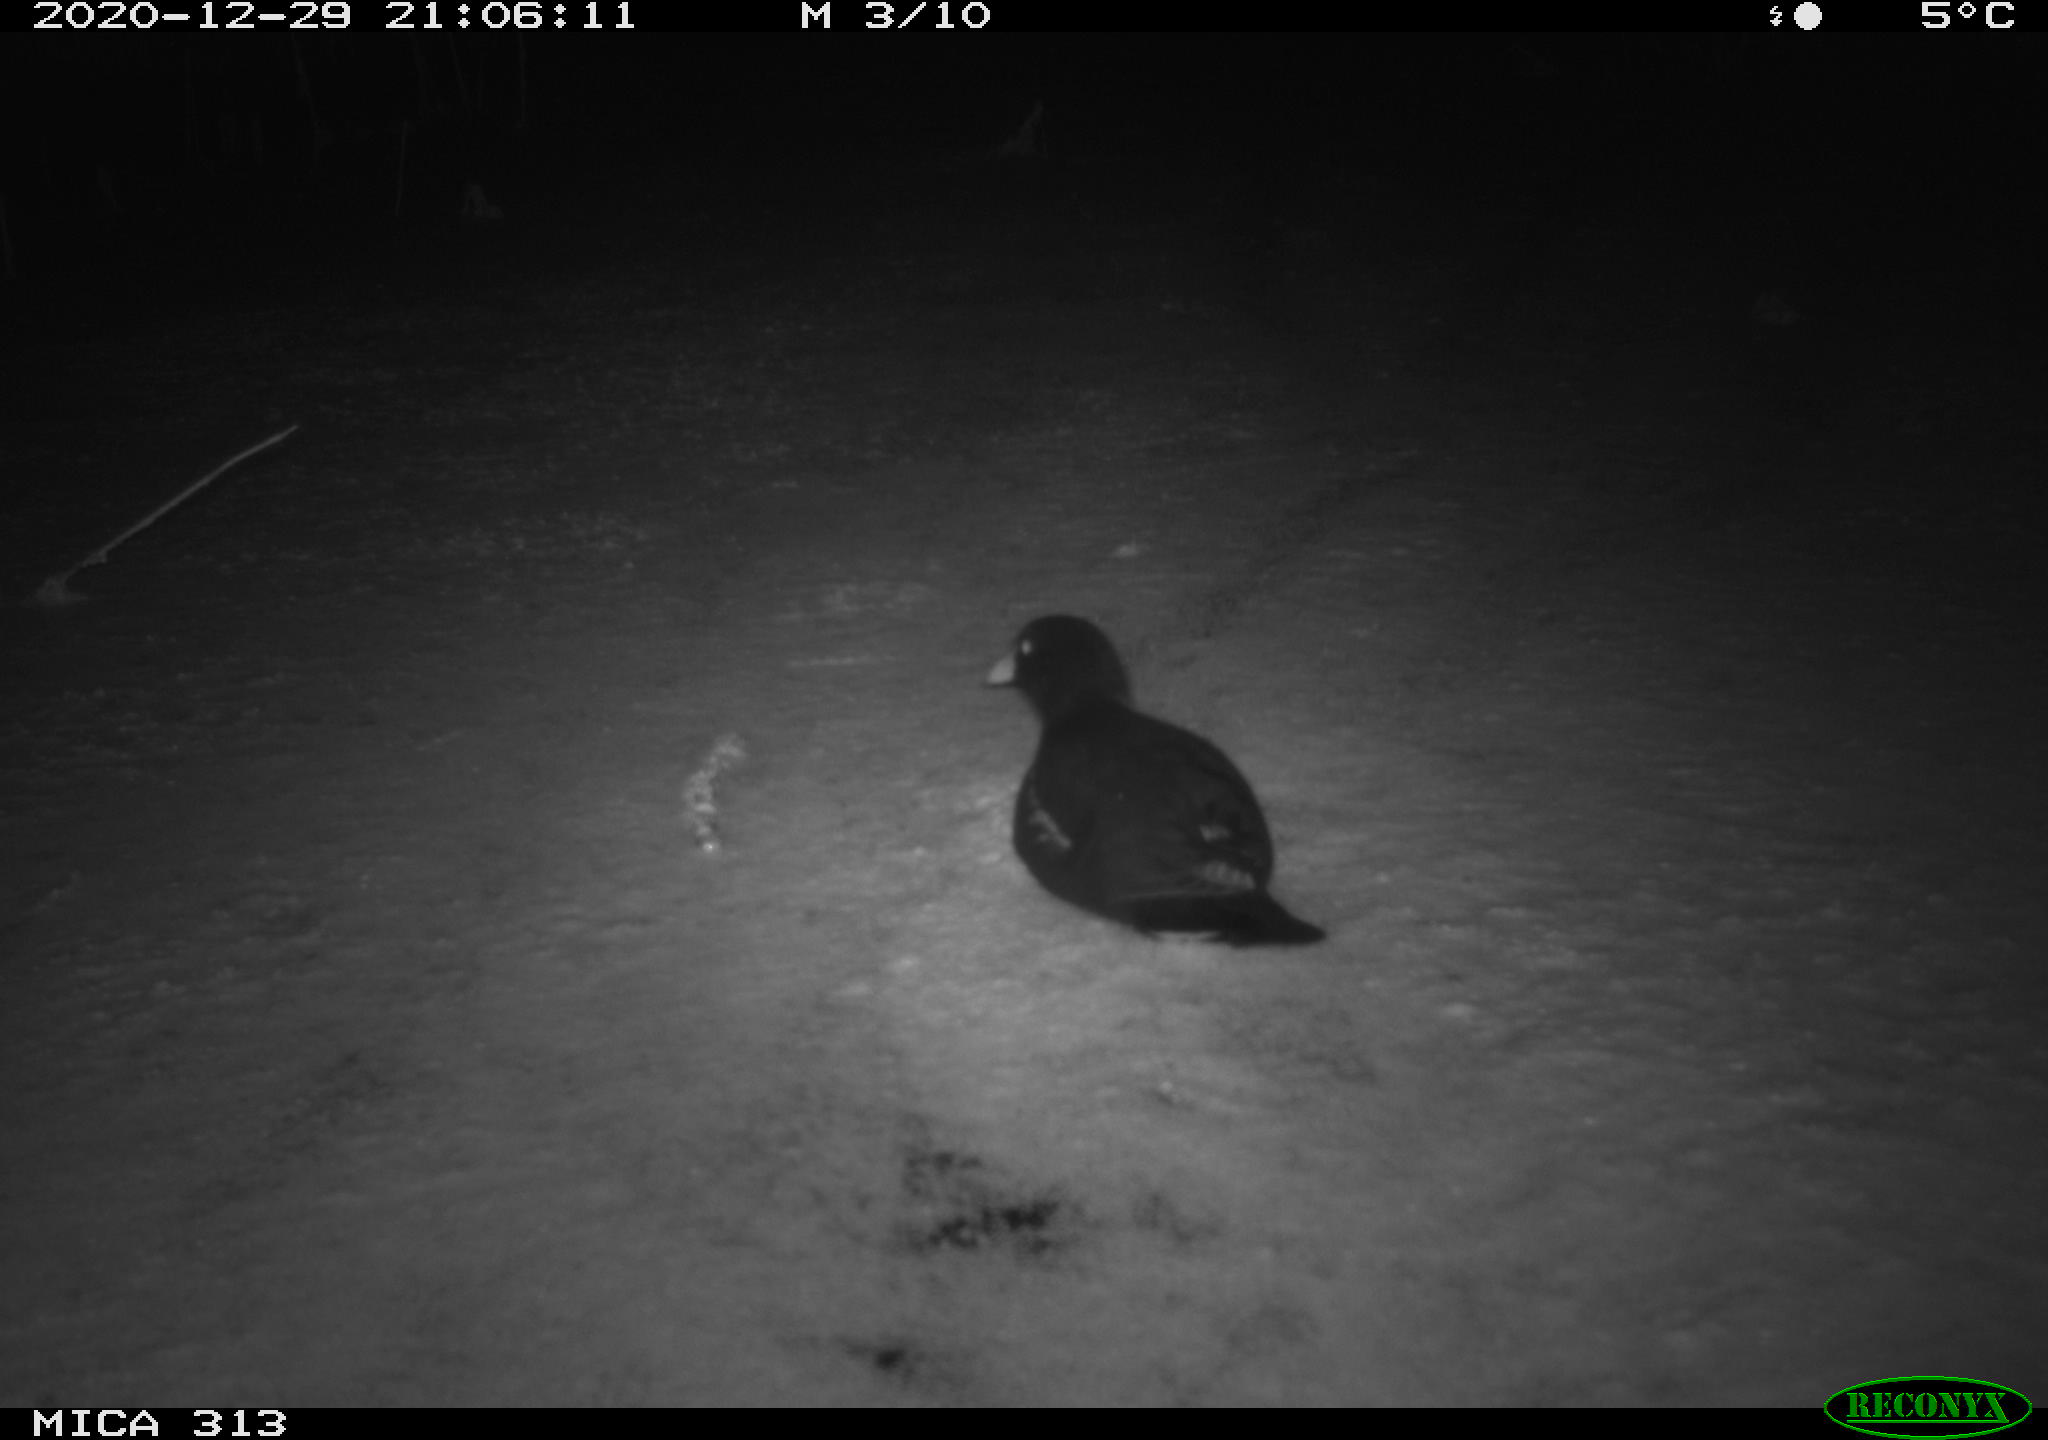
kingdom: Animalia
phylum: Chordata
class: Aves
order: Gruiformes
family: Rallidae
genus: Fulica
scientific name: Fulica atra
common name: Eurasian coot
